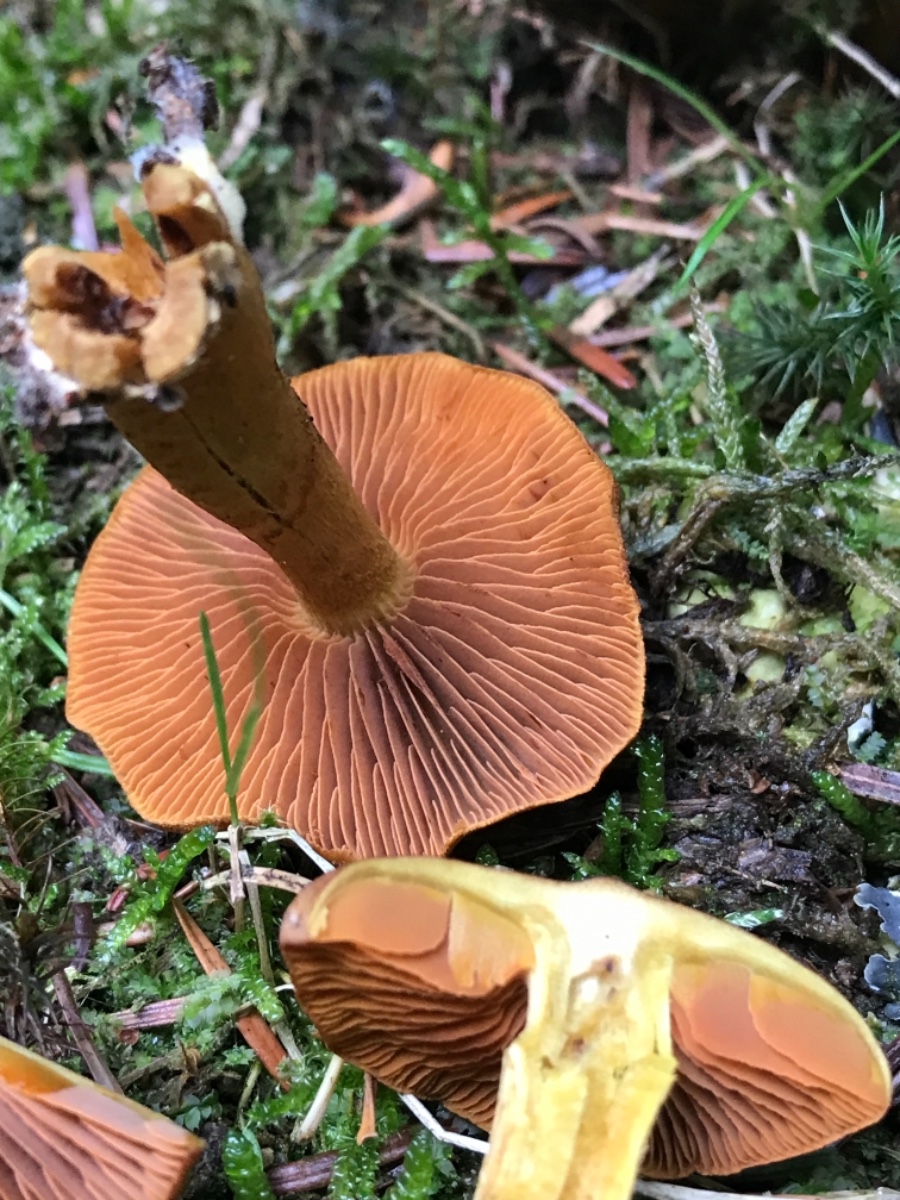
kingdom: Fungi
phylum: Basidiomycota
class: Agaricomycetes
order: Agaricales
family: Cortinariaceae
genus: Cortinarius
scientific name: Cortinarius cinnamomeus
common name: kanel-slørhat
